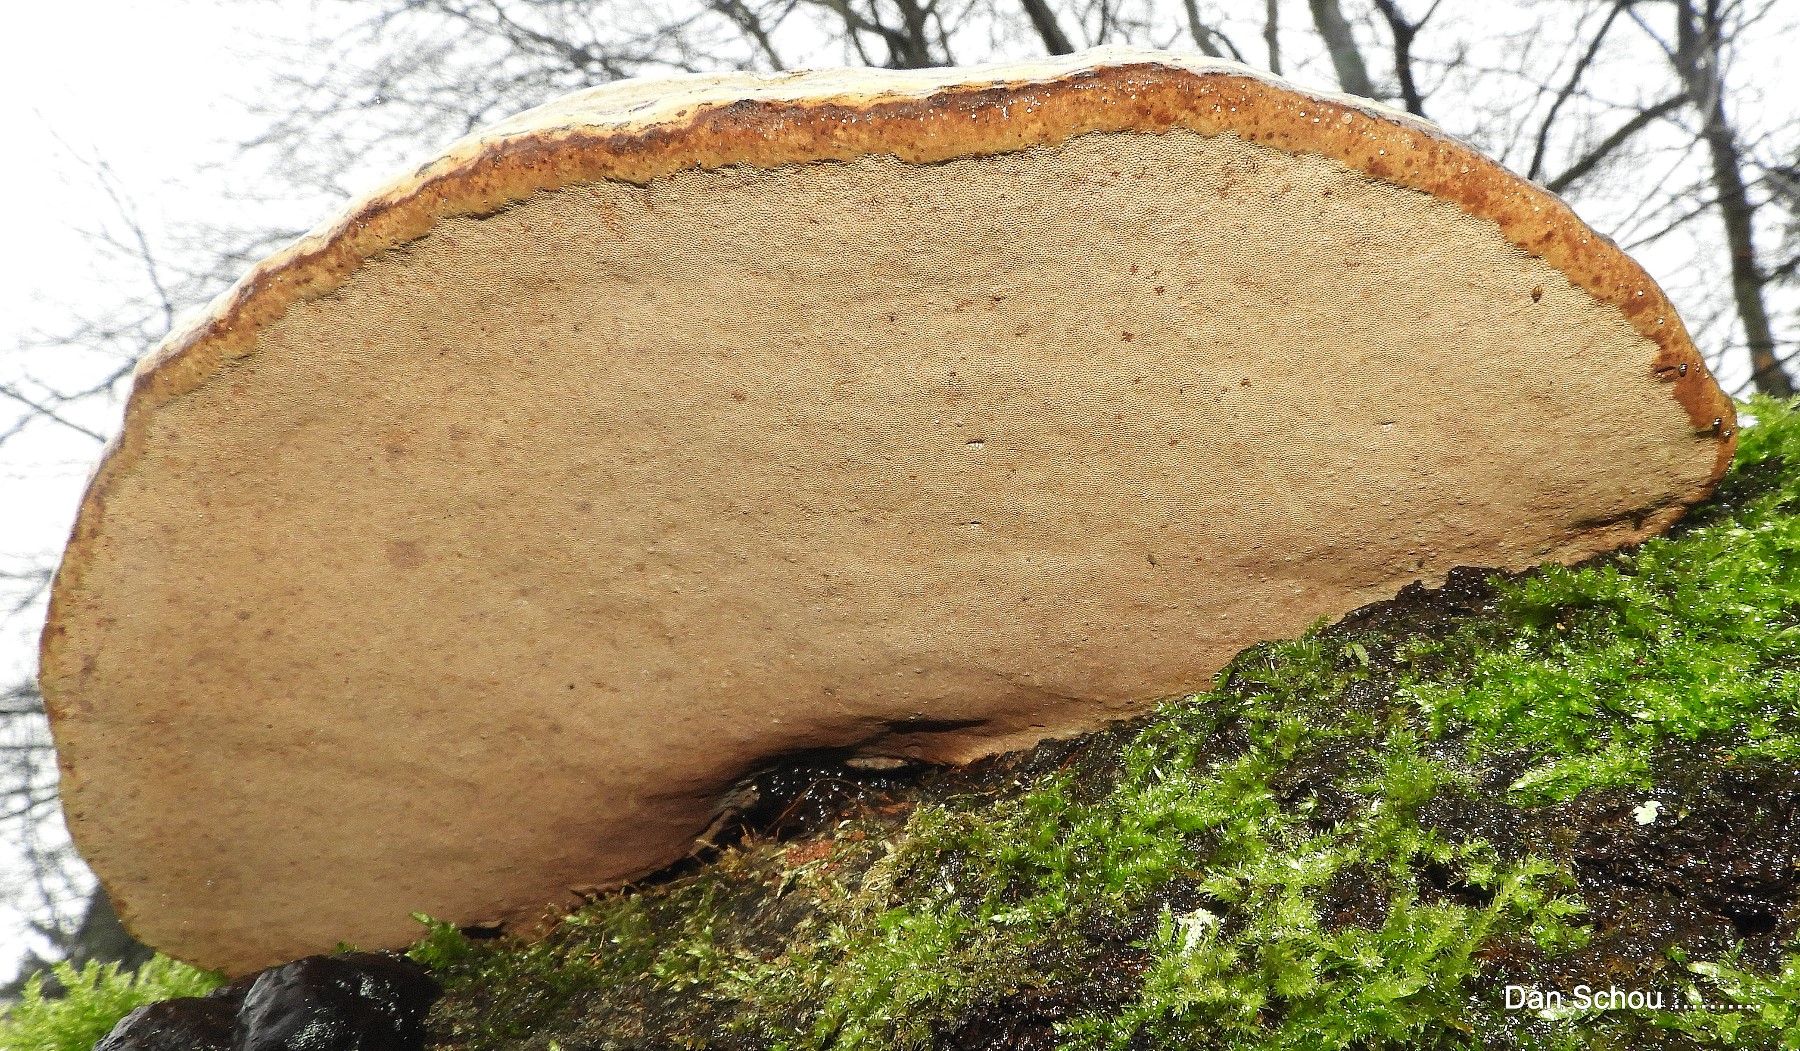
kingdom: Fungi
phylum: Basidiomycota
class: Agaricomycetes
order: Polyporales
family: Polyporaceae
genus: Fomes
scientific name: Fomes fomentarius
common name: tøndersvamp
